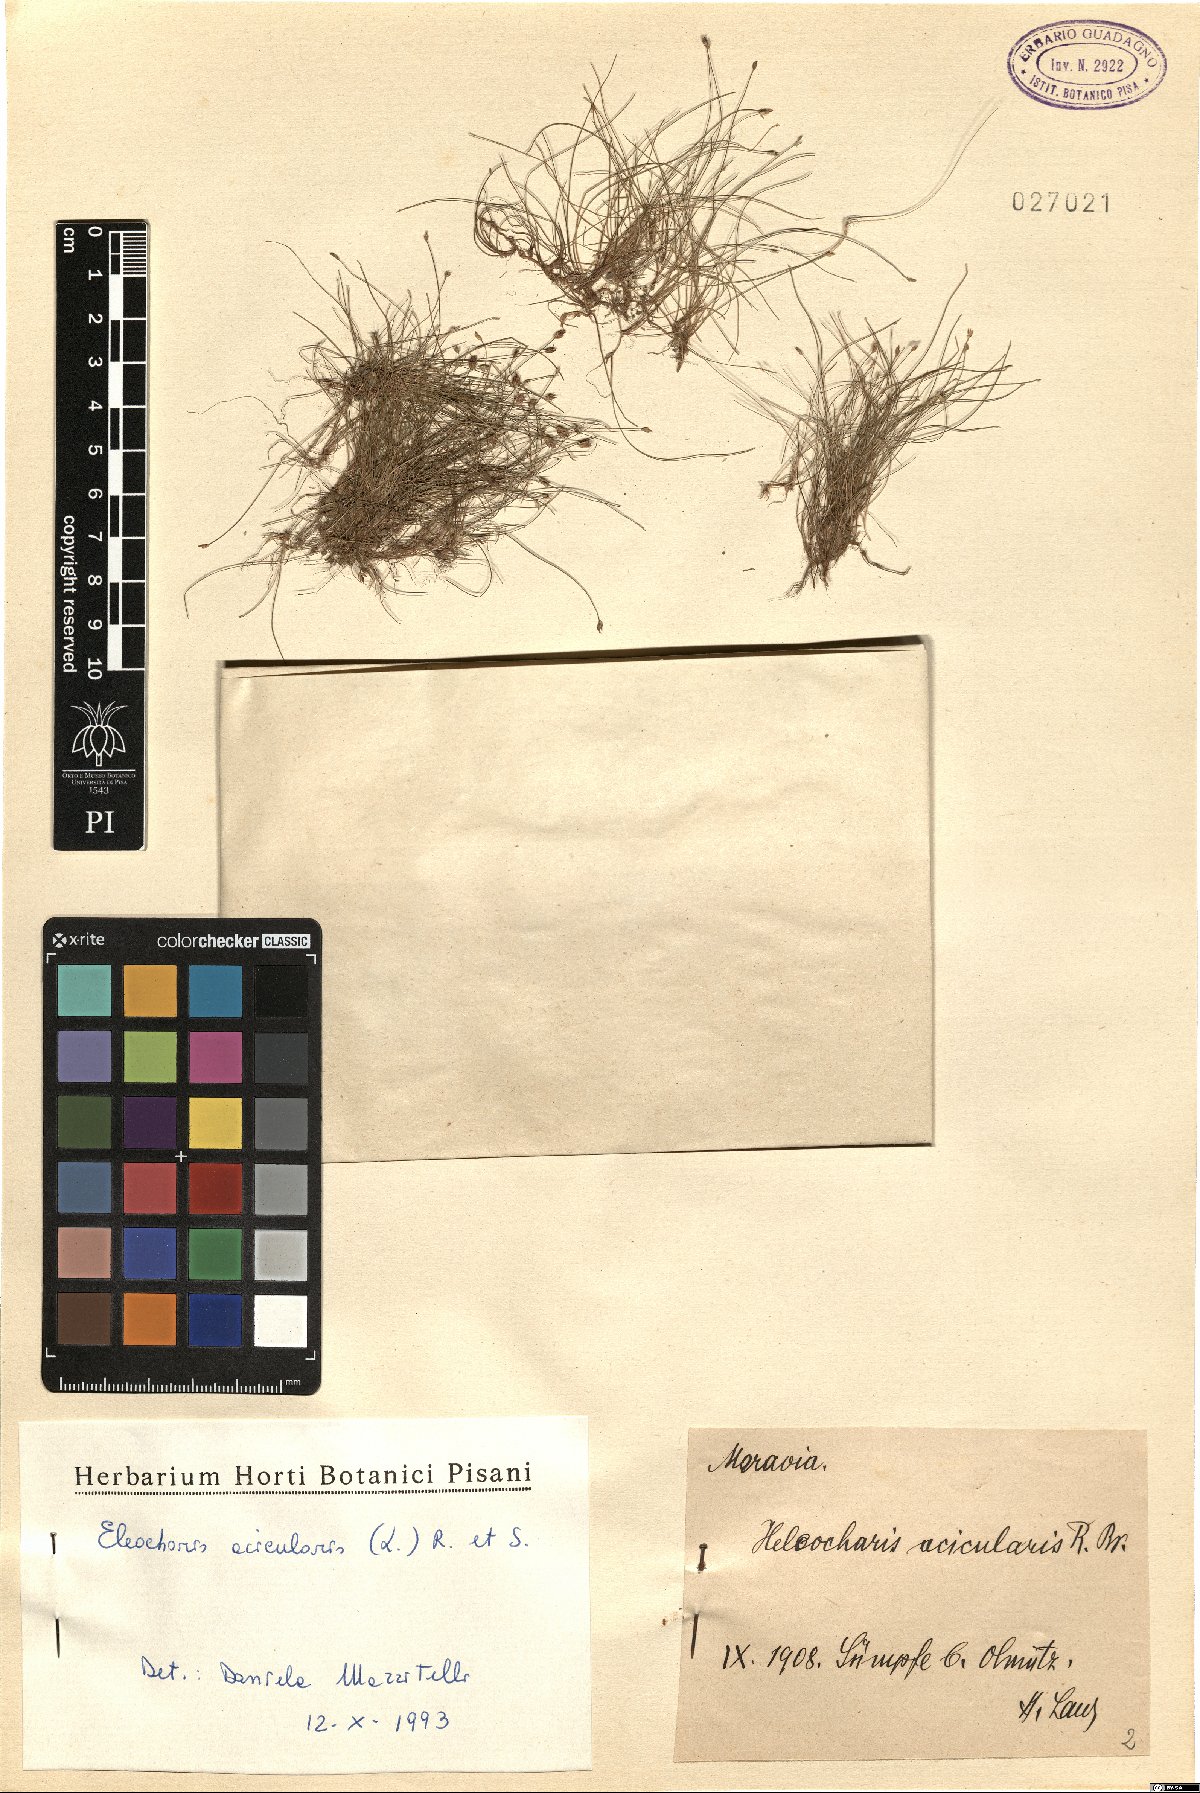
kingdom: Plantae
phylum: Tracheophyta
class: Liliopsida
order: Poales
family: Cyperaceae
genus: Eleocharis
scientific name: Eleocharis acicularis
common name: Needle spike-rush
